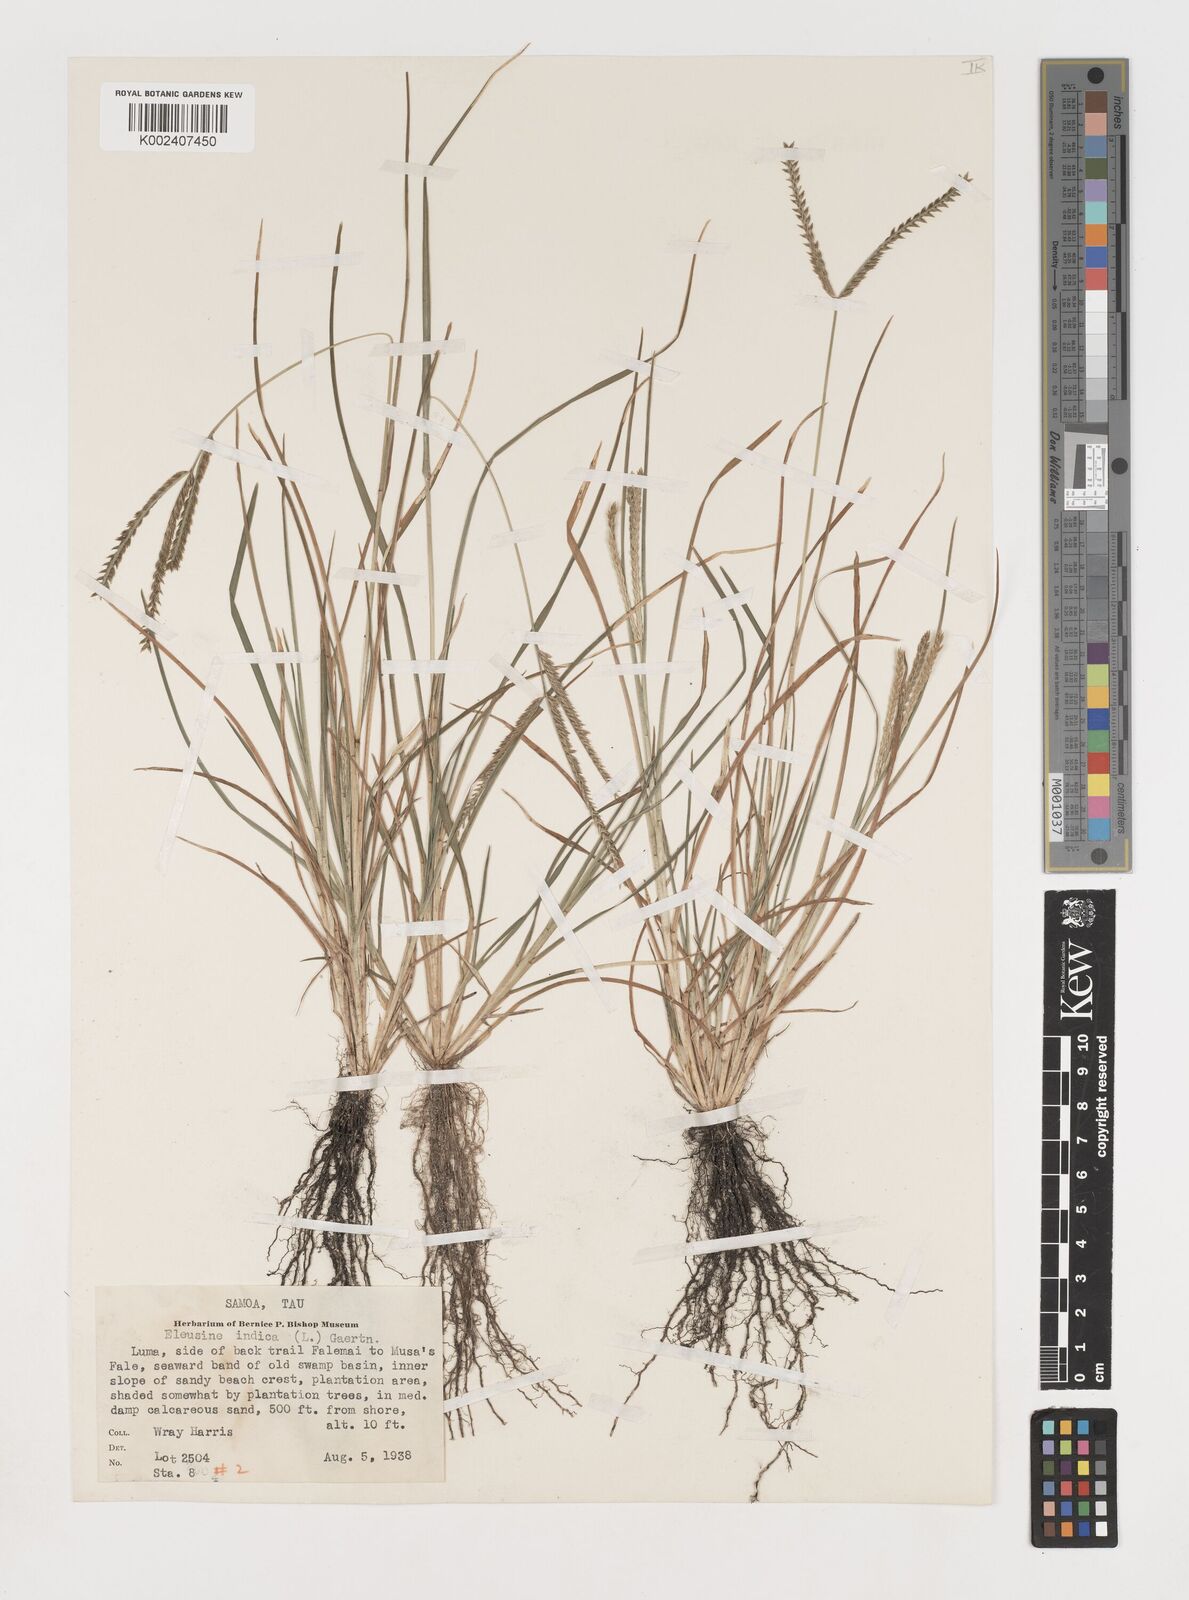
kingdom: Plantae
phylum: Tracheophyta
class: Liliopsida
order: Poales
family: Poaceae
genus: Eleusine
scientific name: Eleusine indica
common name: Yard-grass
